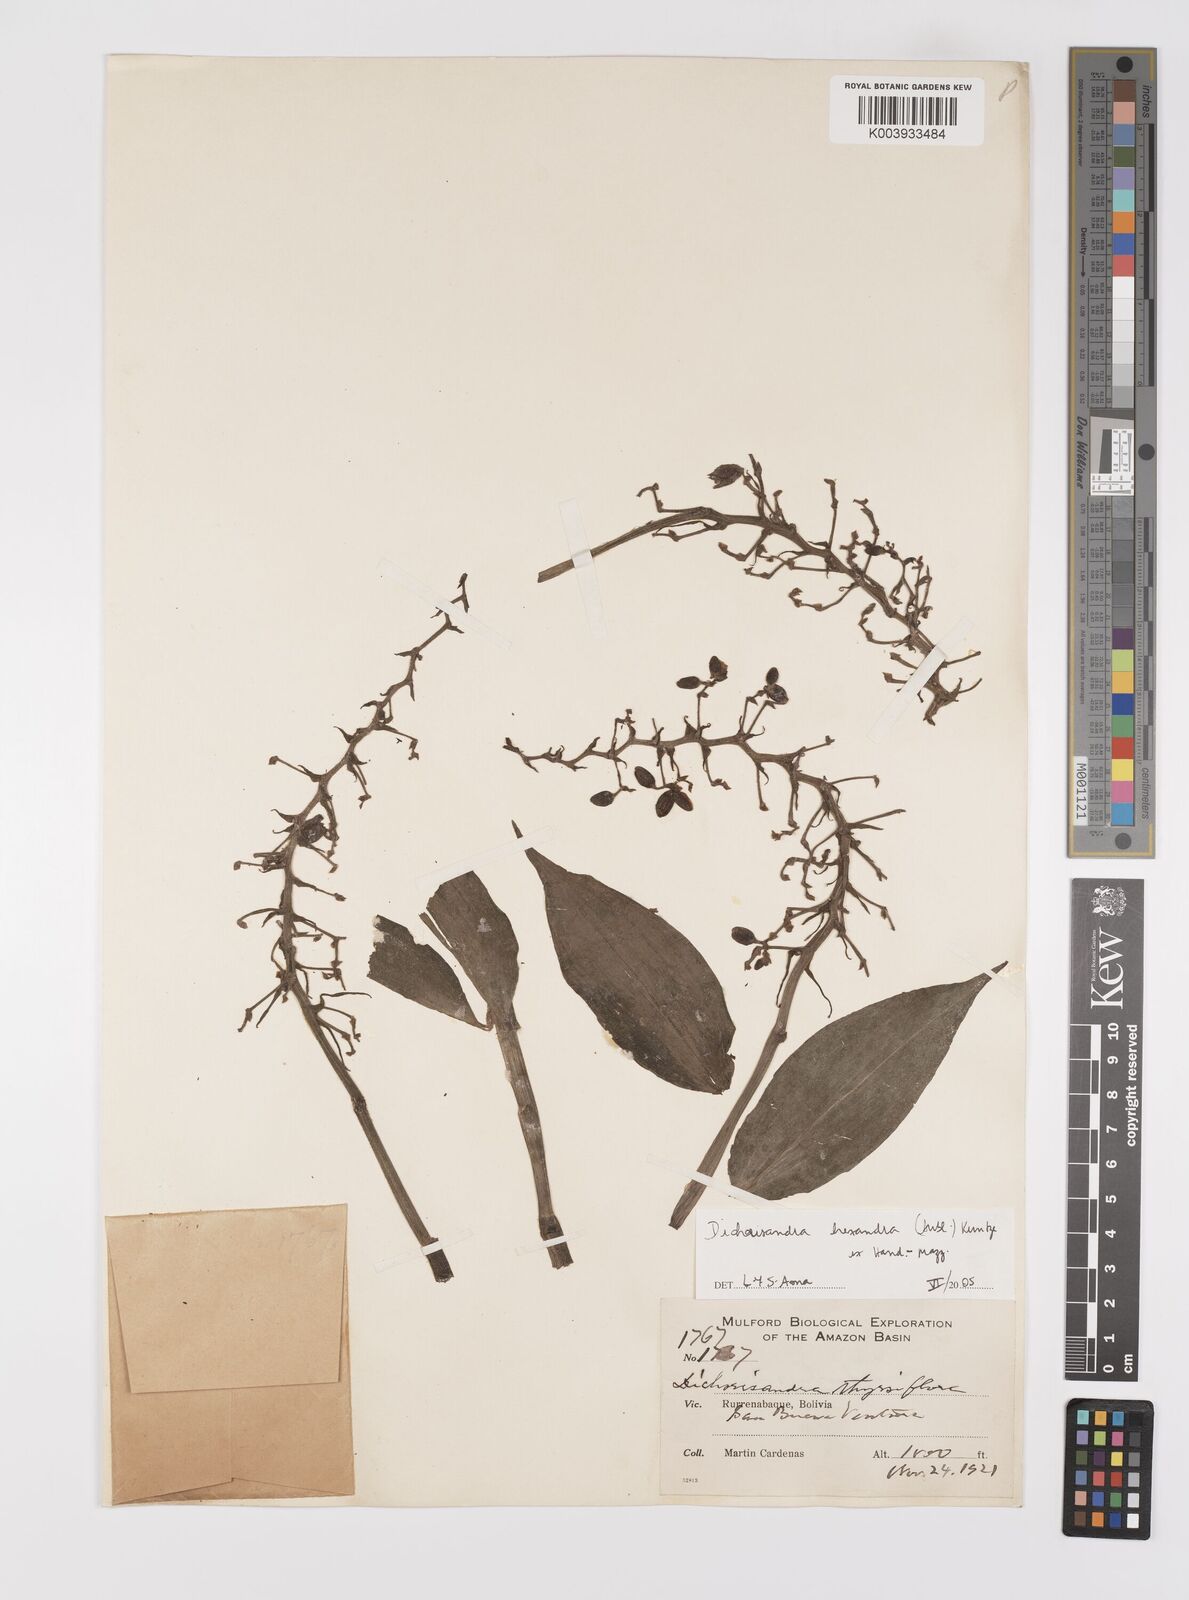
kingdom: Plantae
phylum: Tracheophyta
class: Liliopsida
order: Commelinales
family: Commelinaceae
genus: Dichorisandra
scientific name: Dichorisandra hexandra
